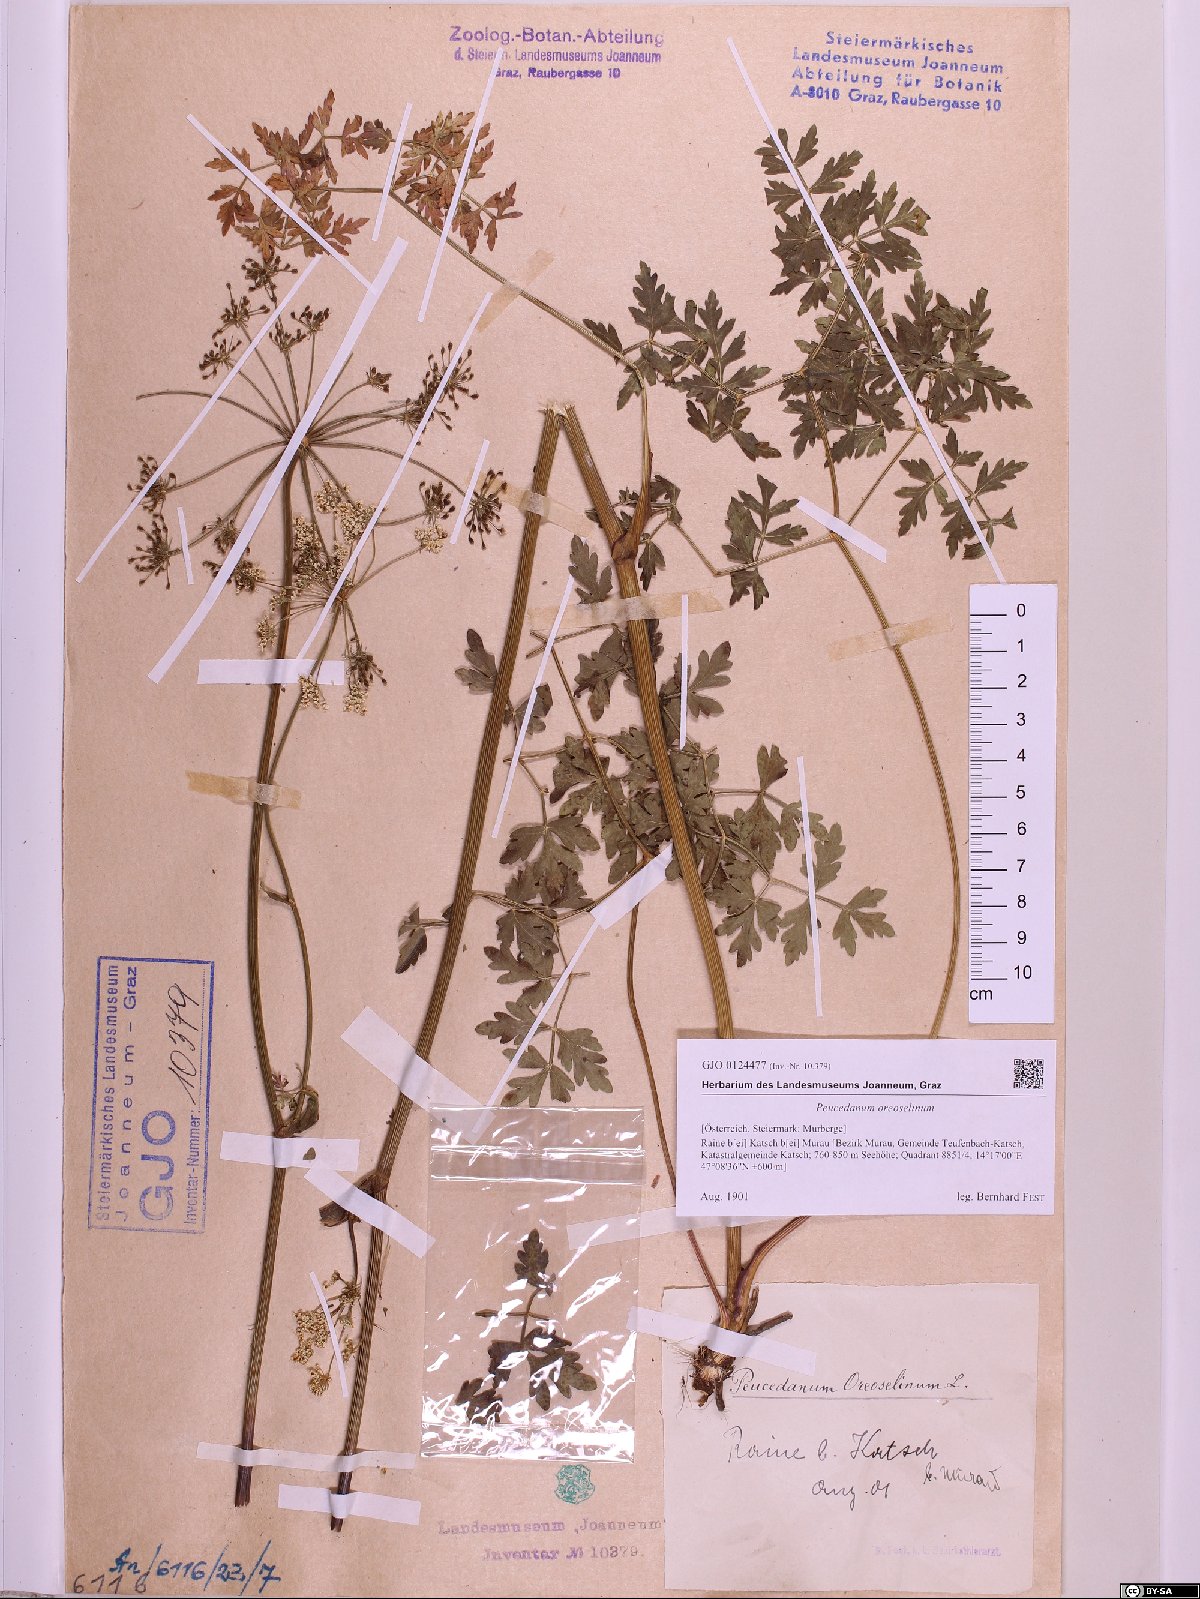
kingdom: Plantae
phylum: Tracheophyta
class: Magnoliopsida
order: Apiales
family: Apiaceae
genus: Oreoselinum
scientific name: Oreoselinum nigrum
